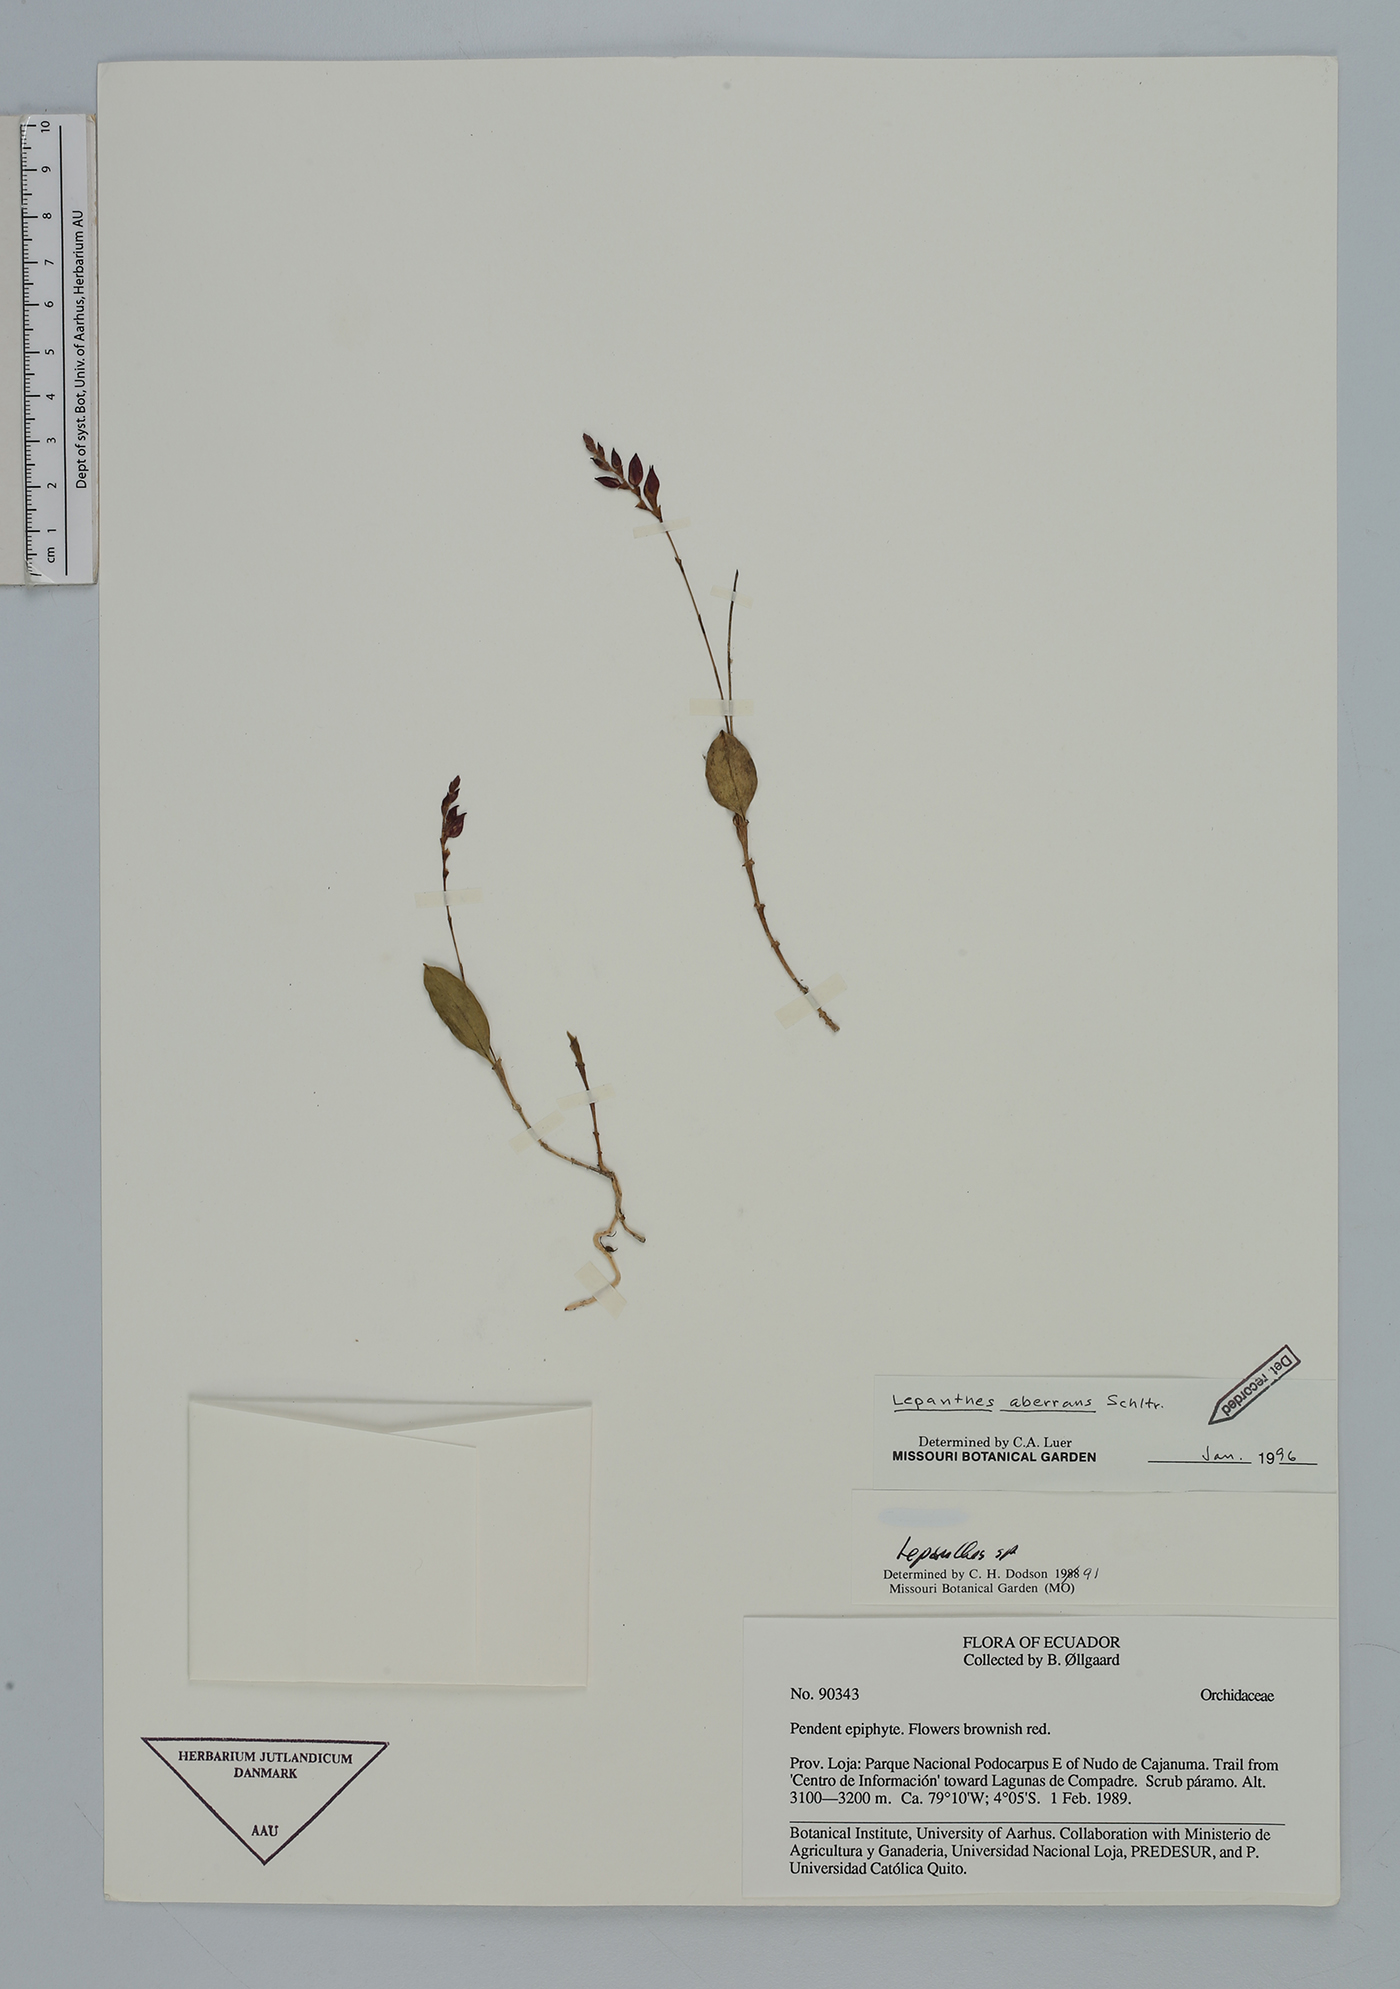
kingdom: Plantae
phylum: Tracheophyta
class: Liliopsida
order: Asparagales
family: Orchidaceae
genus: Draconanthes
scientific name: Draconanthes aberrans
